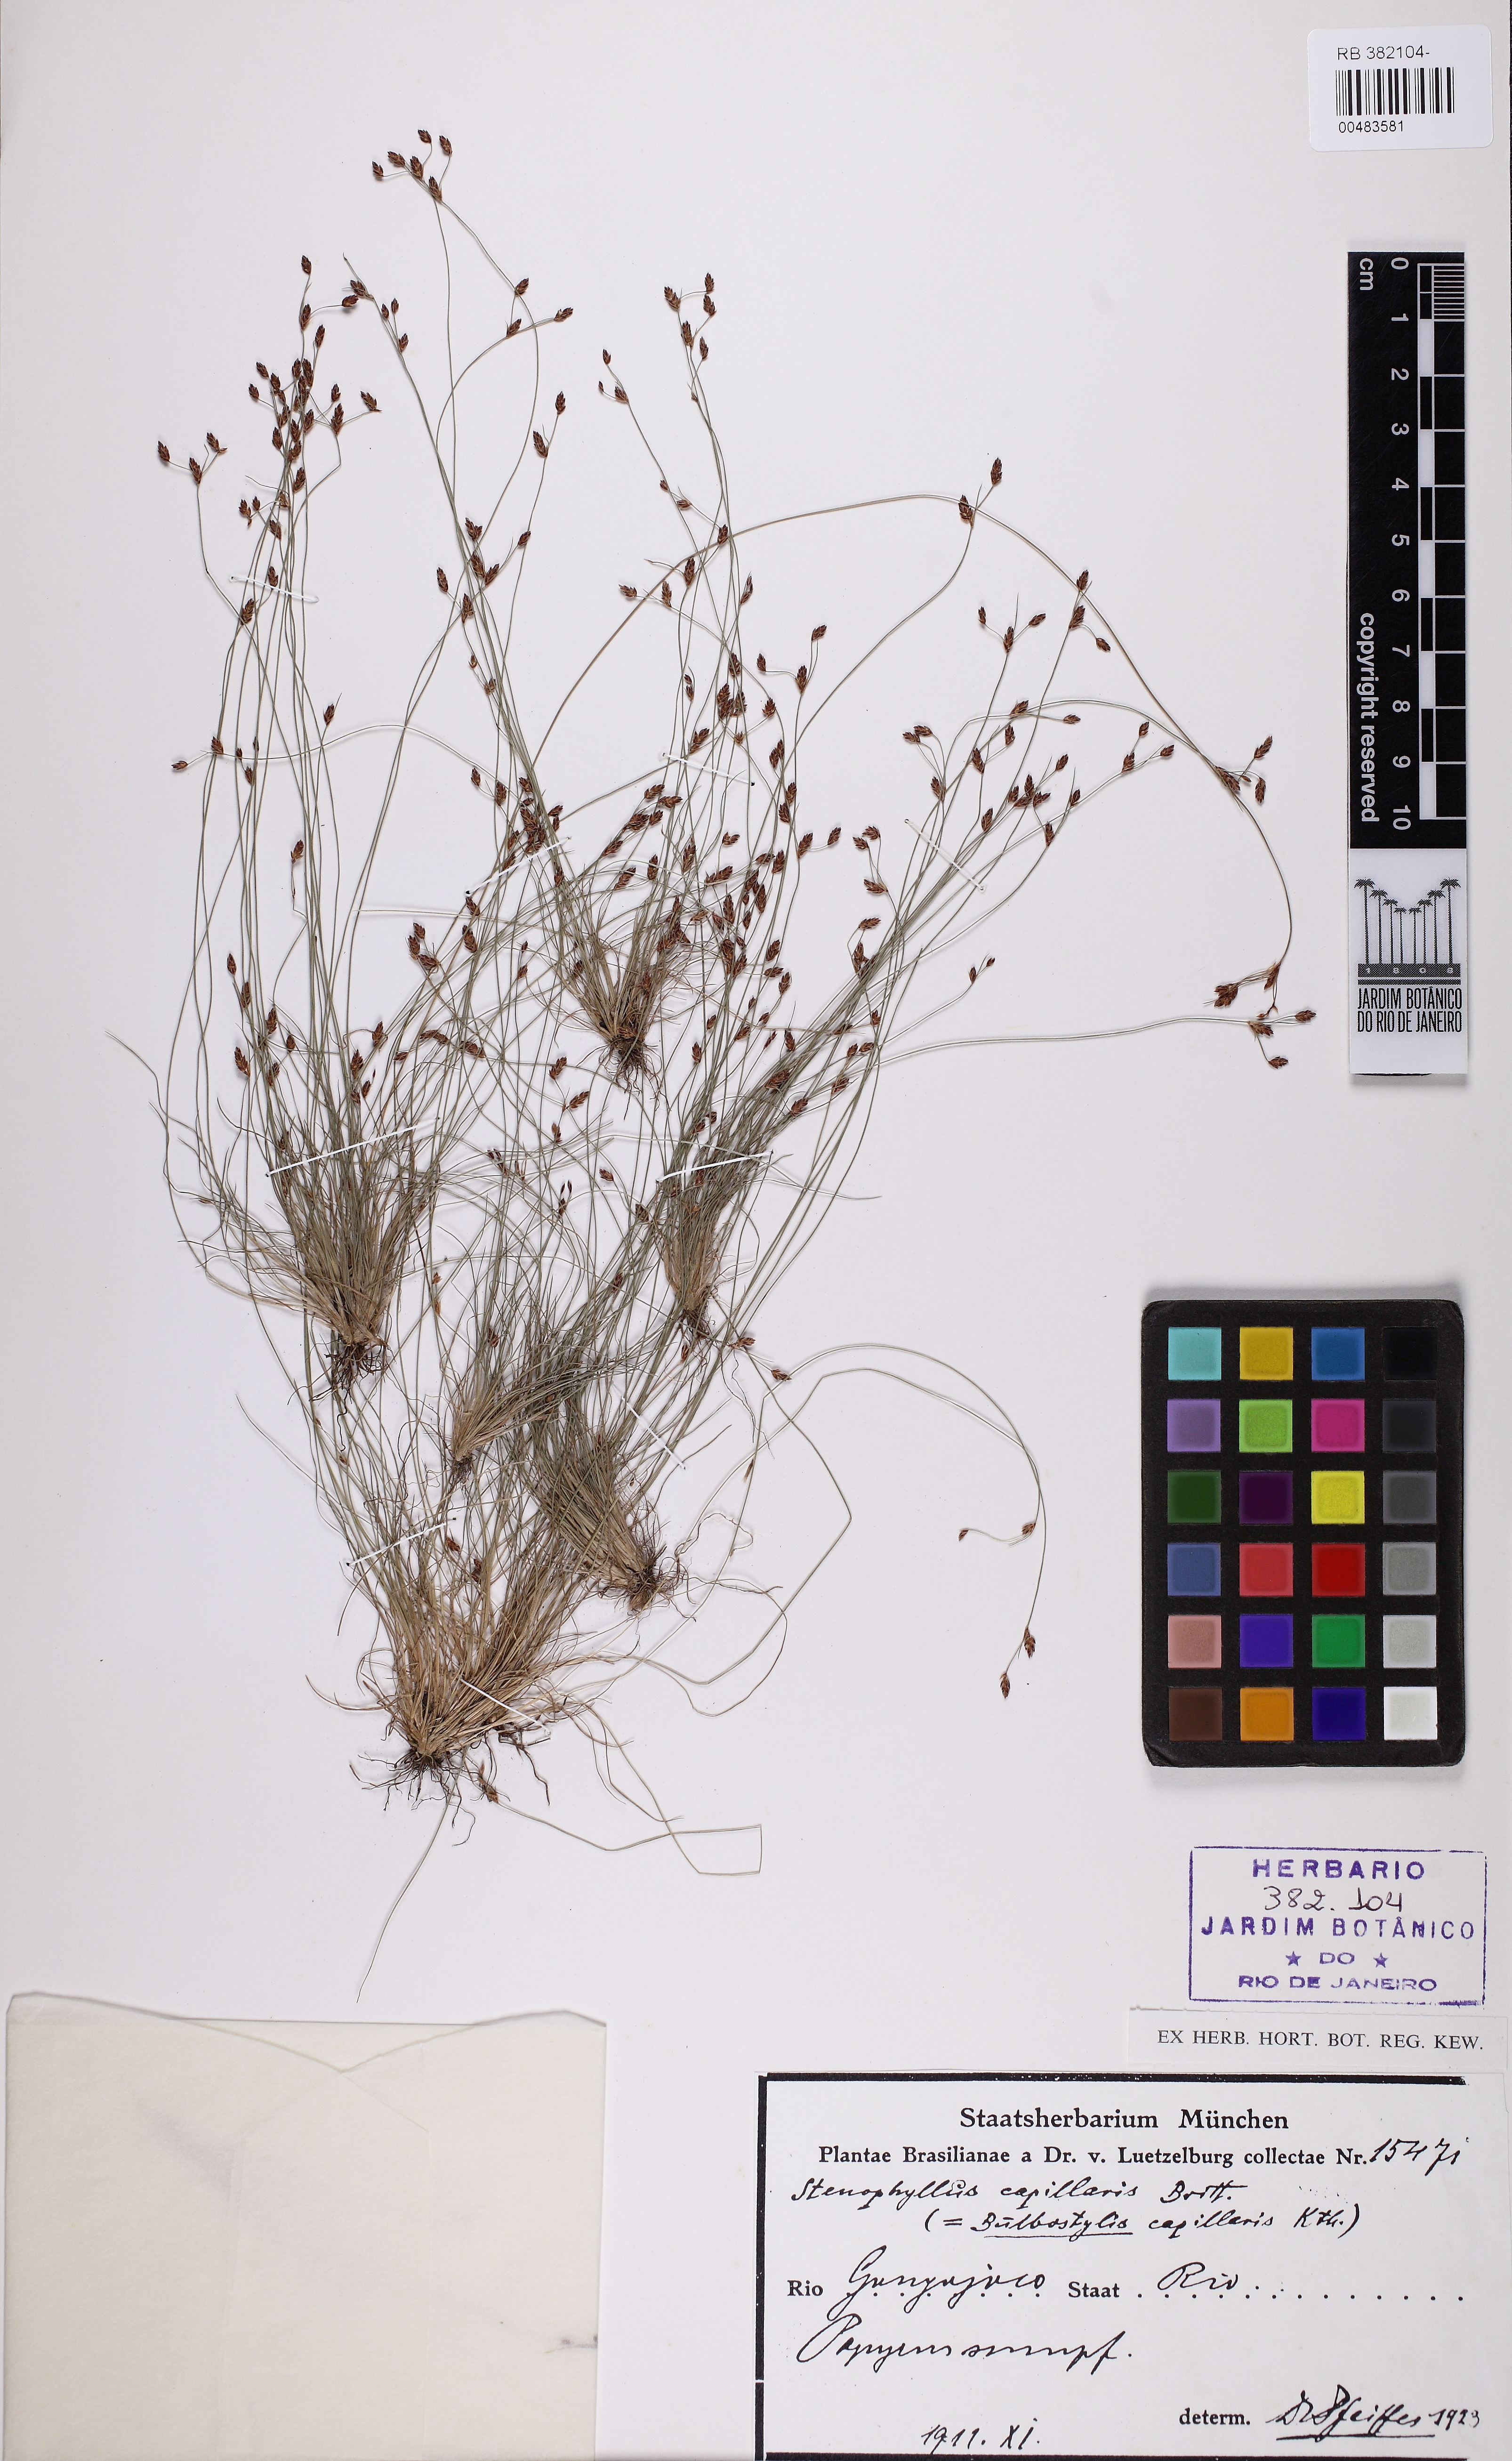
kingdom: Plantae
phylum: Tracheophyta
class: Liliopsida
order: Poales
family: Cyperaceae
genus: Bulbostylis
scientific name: Bulbostylis capillaris
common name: Densetuft hairsedge
